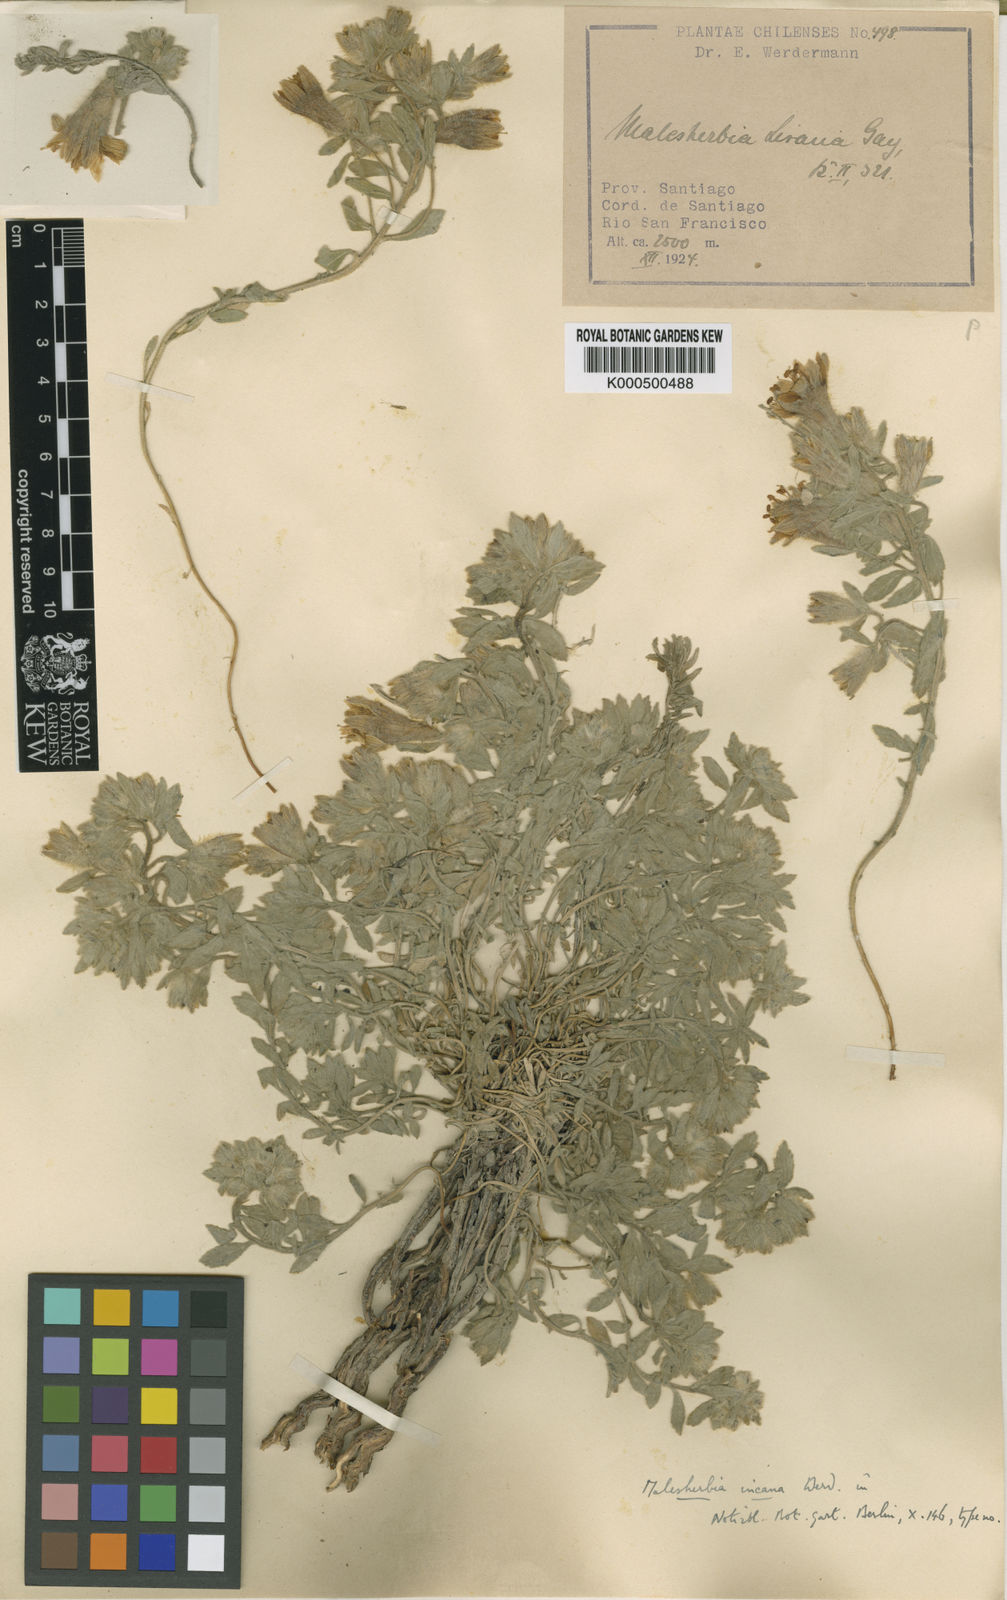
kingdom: Plantae
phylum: Tracheophyta
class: Magnoliopsida
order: Malpighiales
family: Malesherbiaceae
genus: Malesherbia
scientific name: Malesherbia lirana
